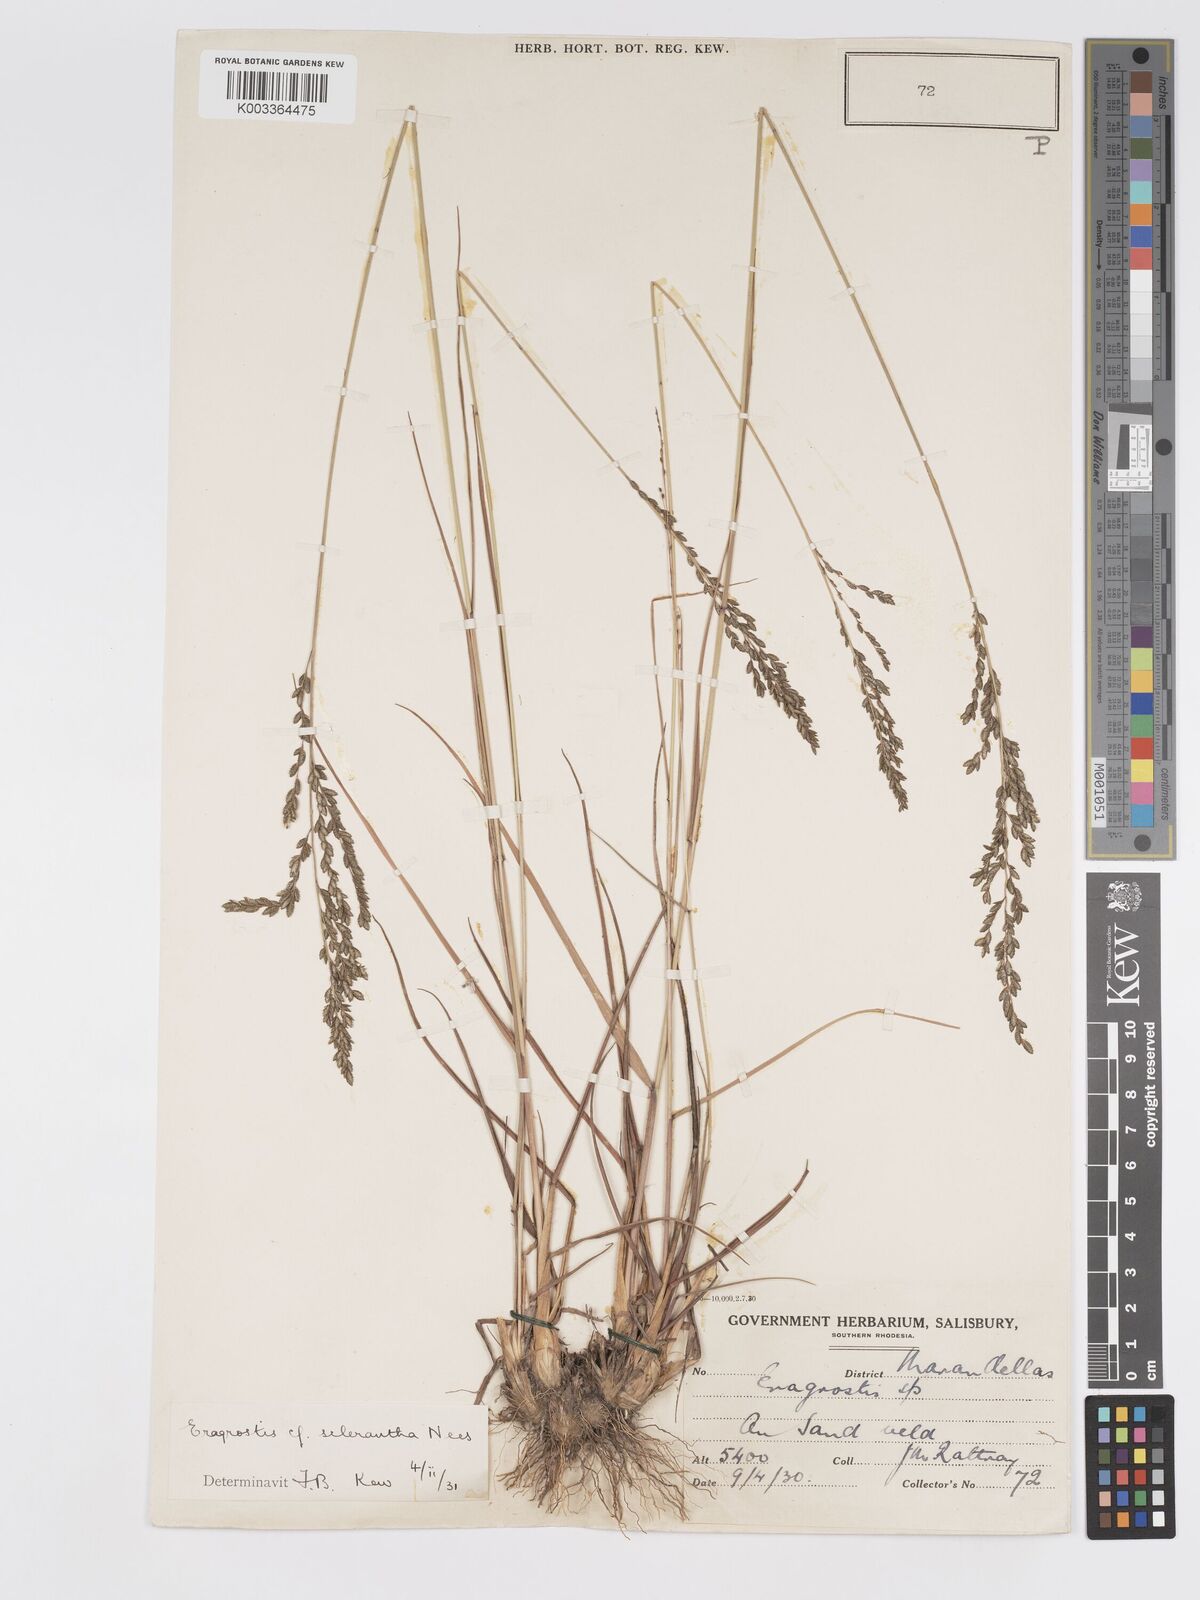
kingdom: Plantae
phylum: Tracheophyta
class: Liliopsida
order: Poales
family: Poaceae
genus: Eragrostis
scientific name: Eragrostis sclerantha
